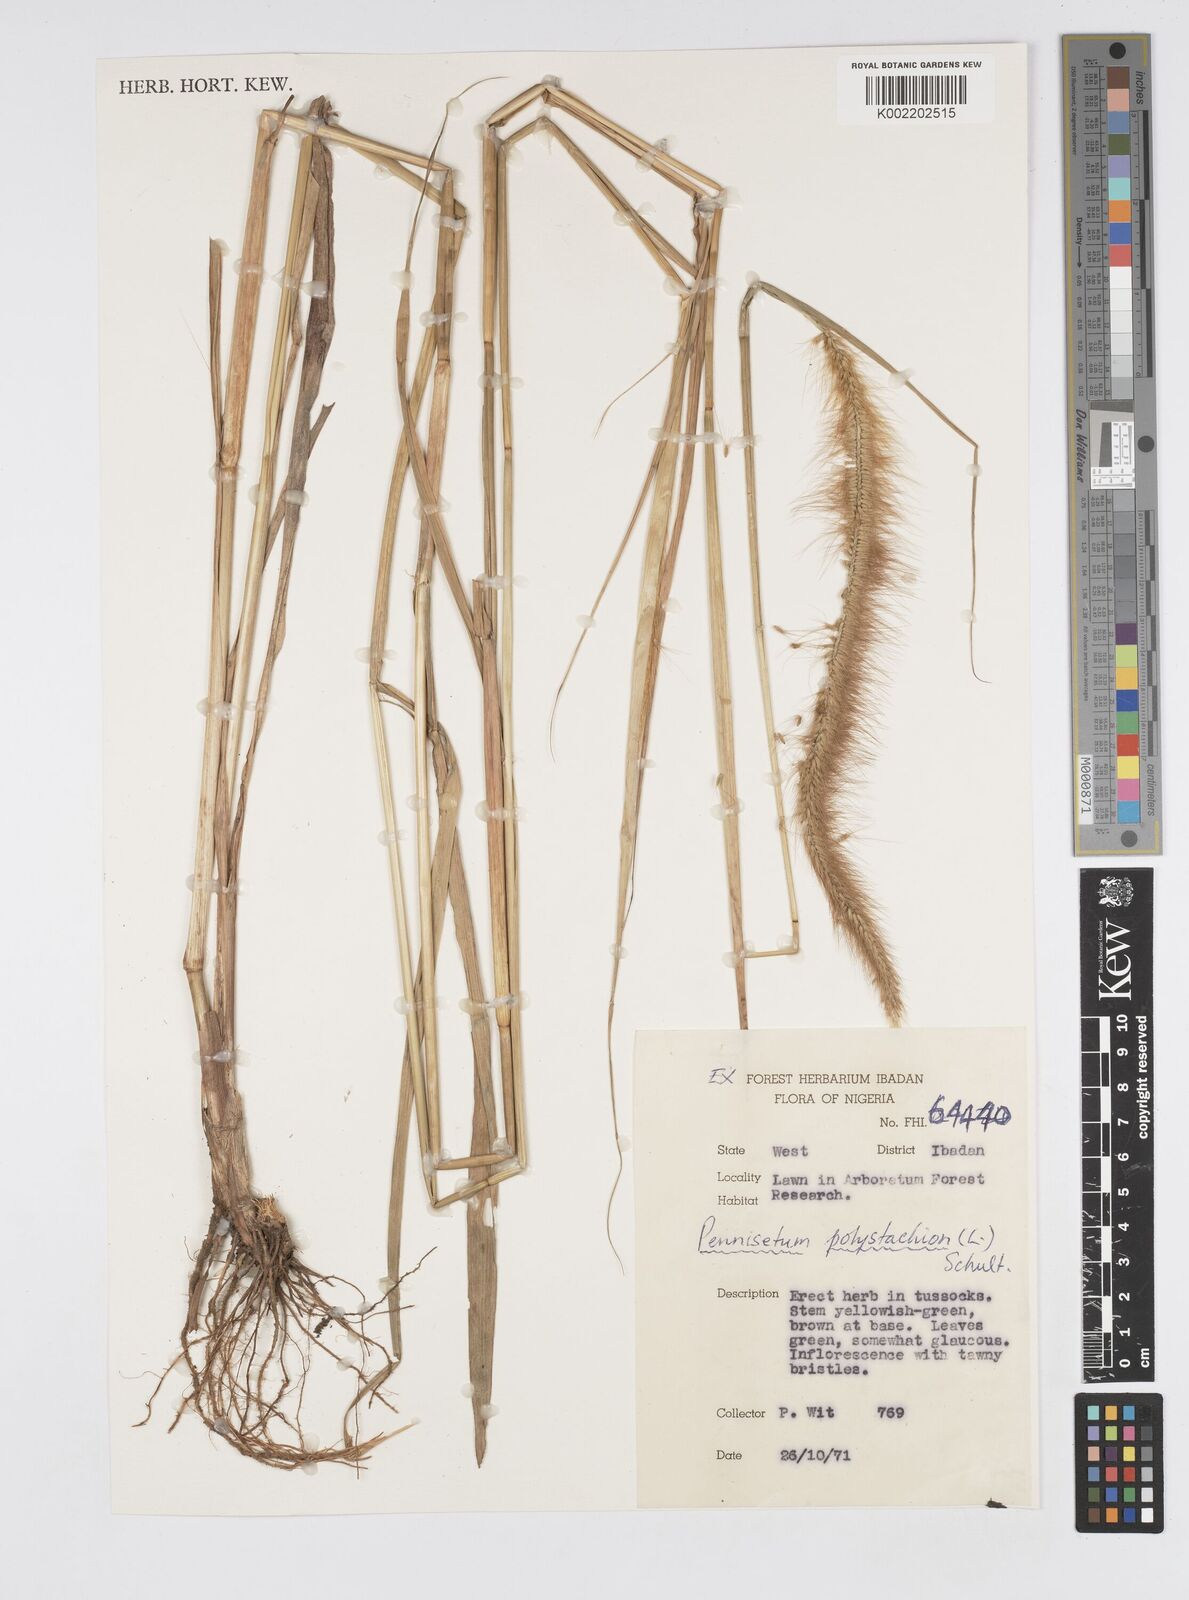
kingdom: Plantae
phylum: Tracheophyta
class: Liliopsida
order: Poales
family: Poaceae
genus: Cenchrus
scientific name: Cenchrus Pennisetum spec
